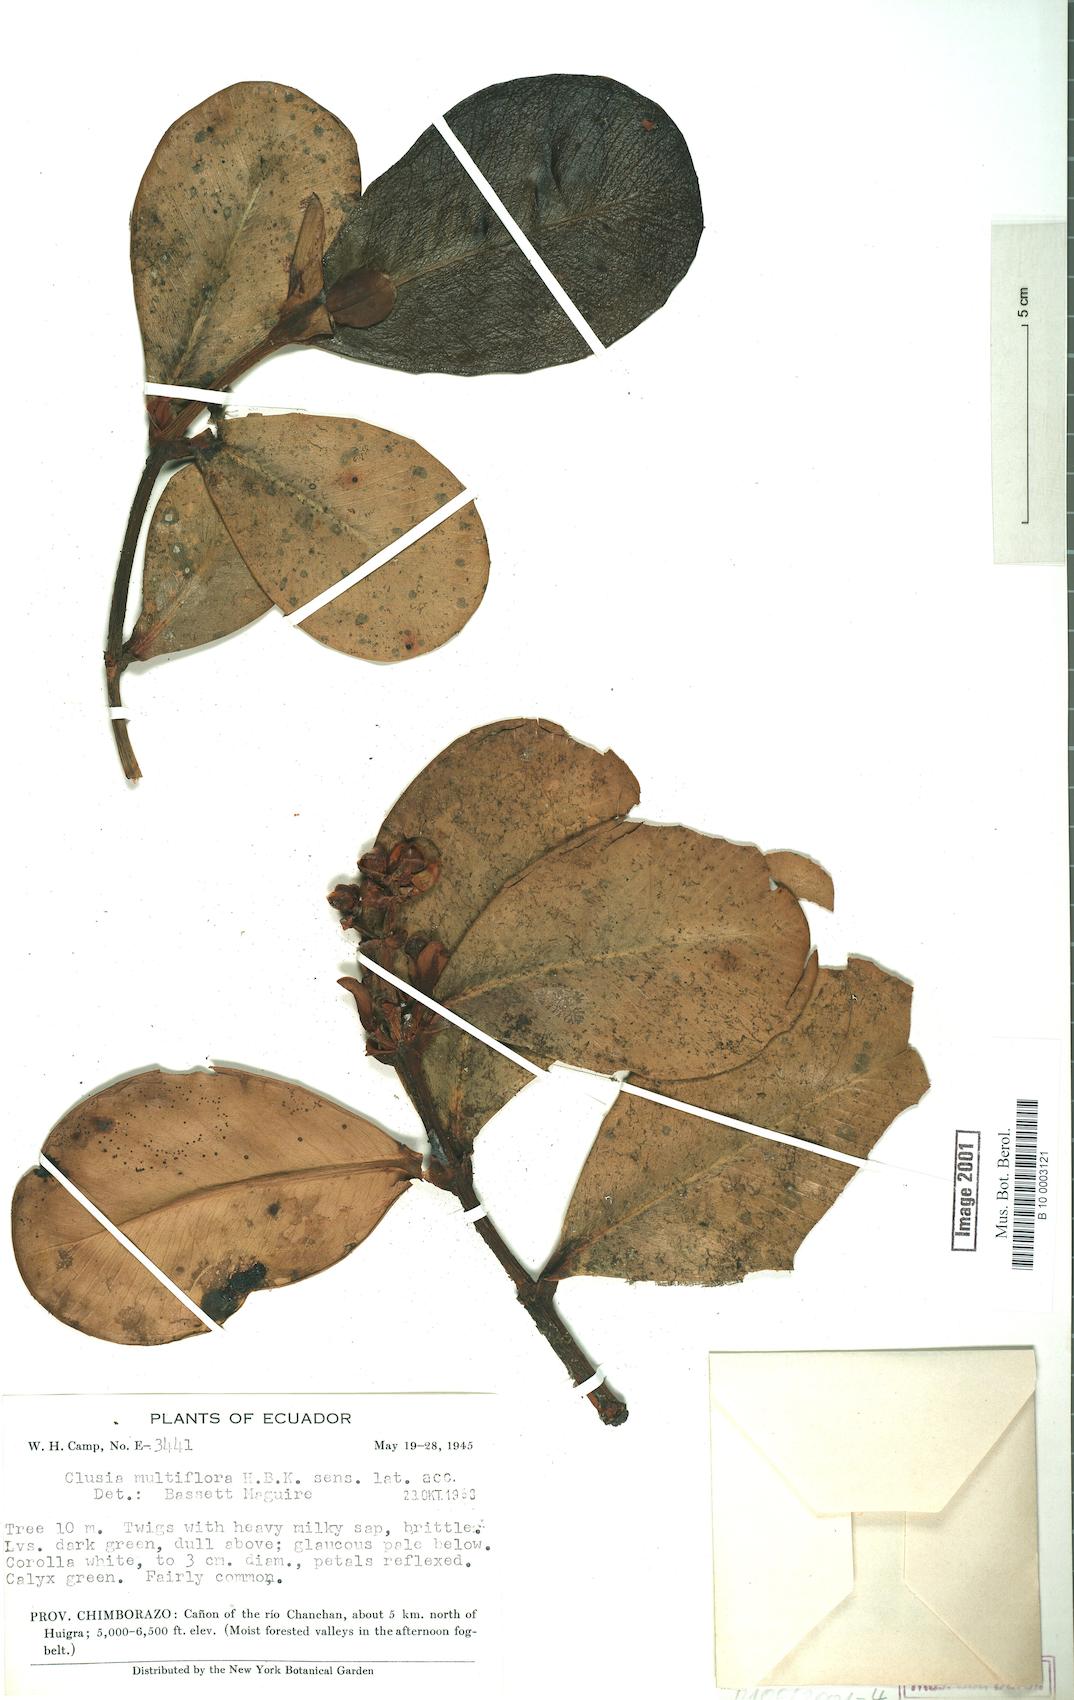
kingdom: Plantae
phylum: Tracheophyta
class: Magnoliopsida
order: Malpighiales
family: Clusiaceae
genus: Clusia
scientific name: Clusia multiflora
